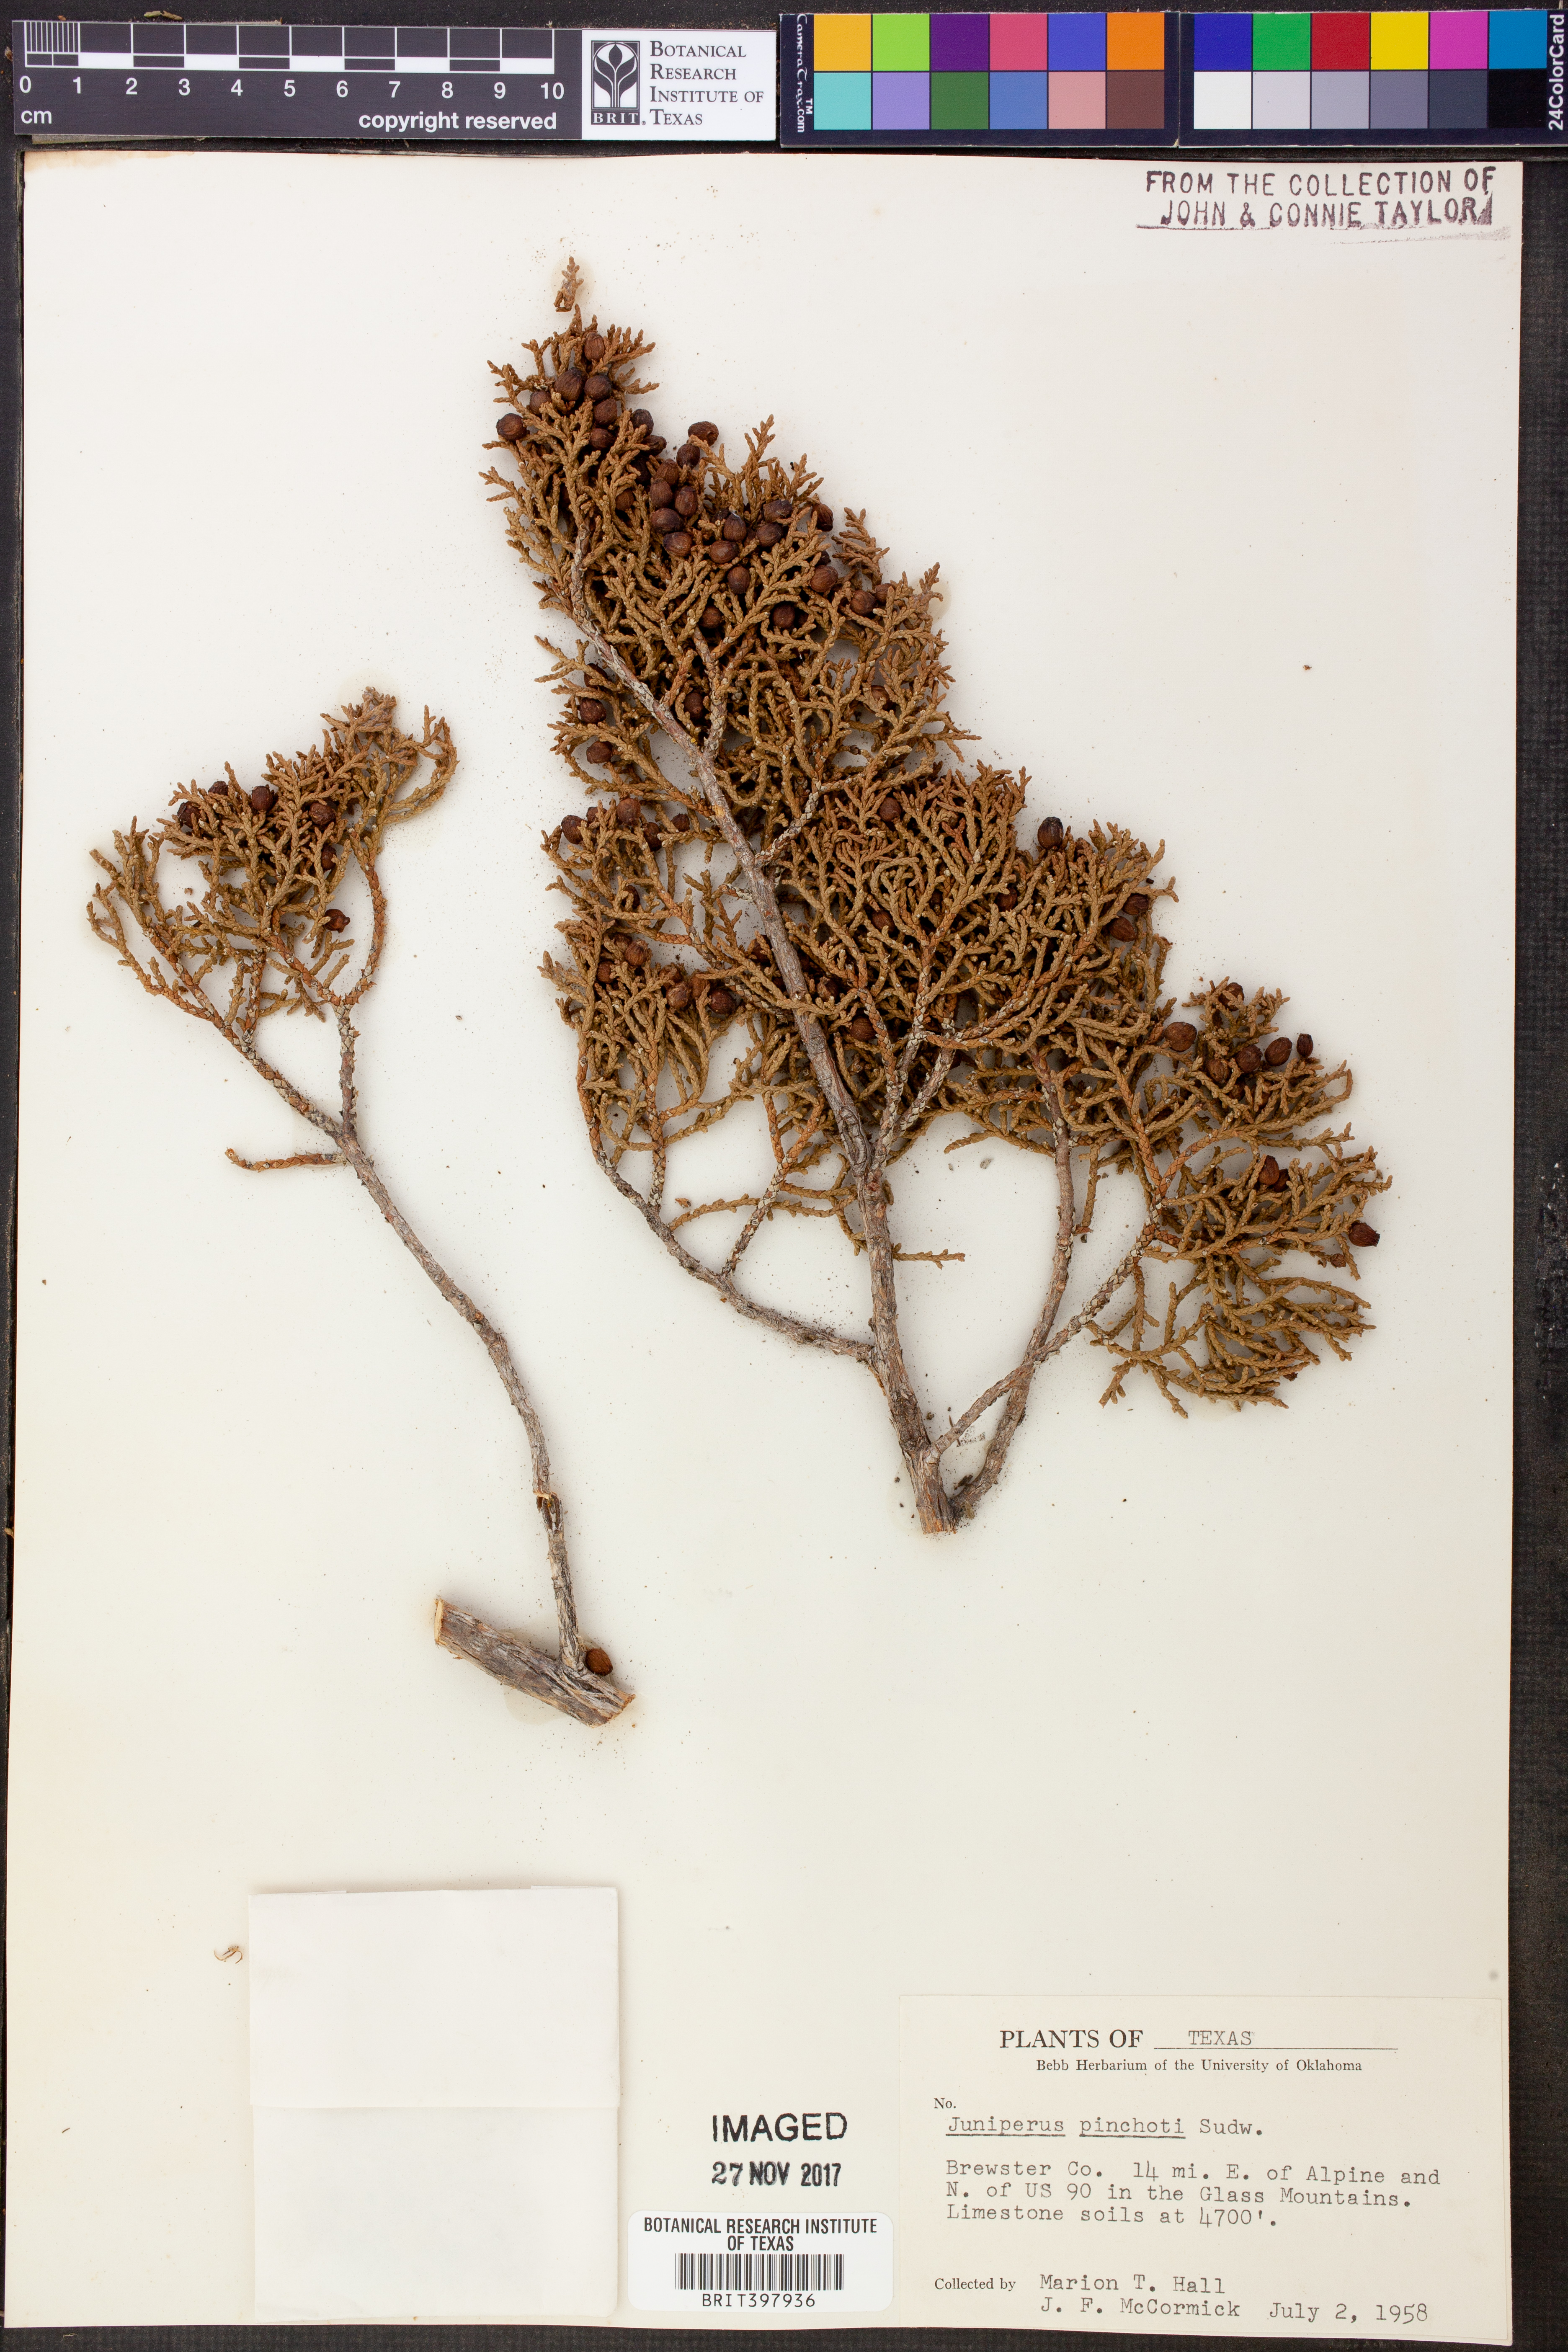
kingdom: Plantae
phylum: Tracheophyta
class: Pinopsida
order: Pinales
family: Cupressaceae
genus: Juniperus
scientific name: Juniperus pinchotii
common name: Pinchot juniper
